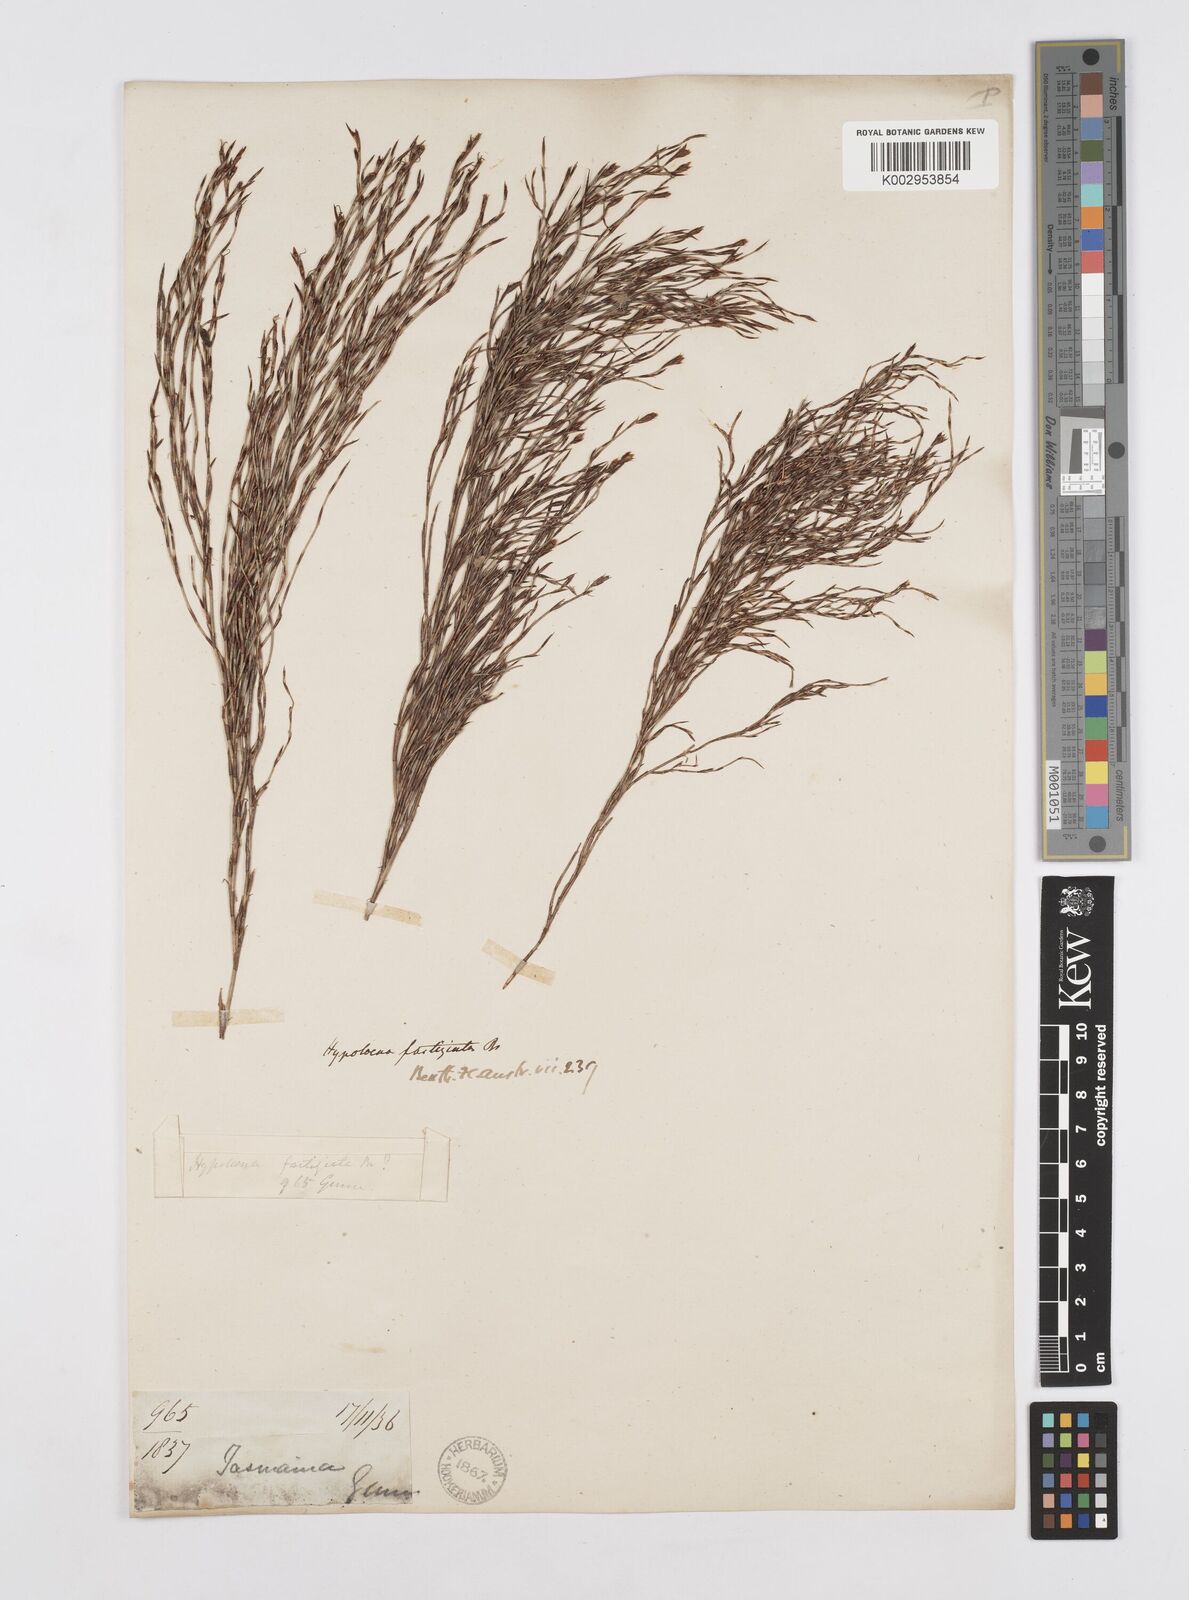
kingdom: Plantae
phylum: Tracheophyta
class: Liliopsida
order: Poales
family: Restionaceae
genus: Hypolaena
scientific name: Hypolaena fastigiata
